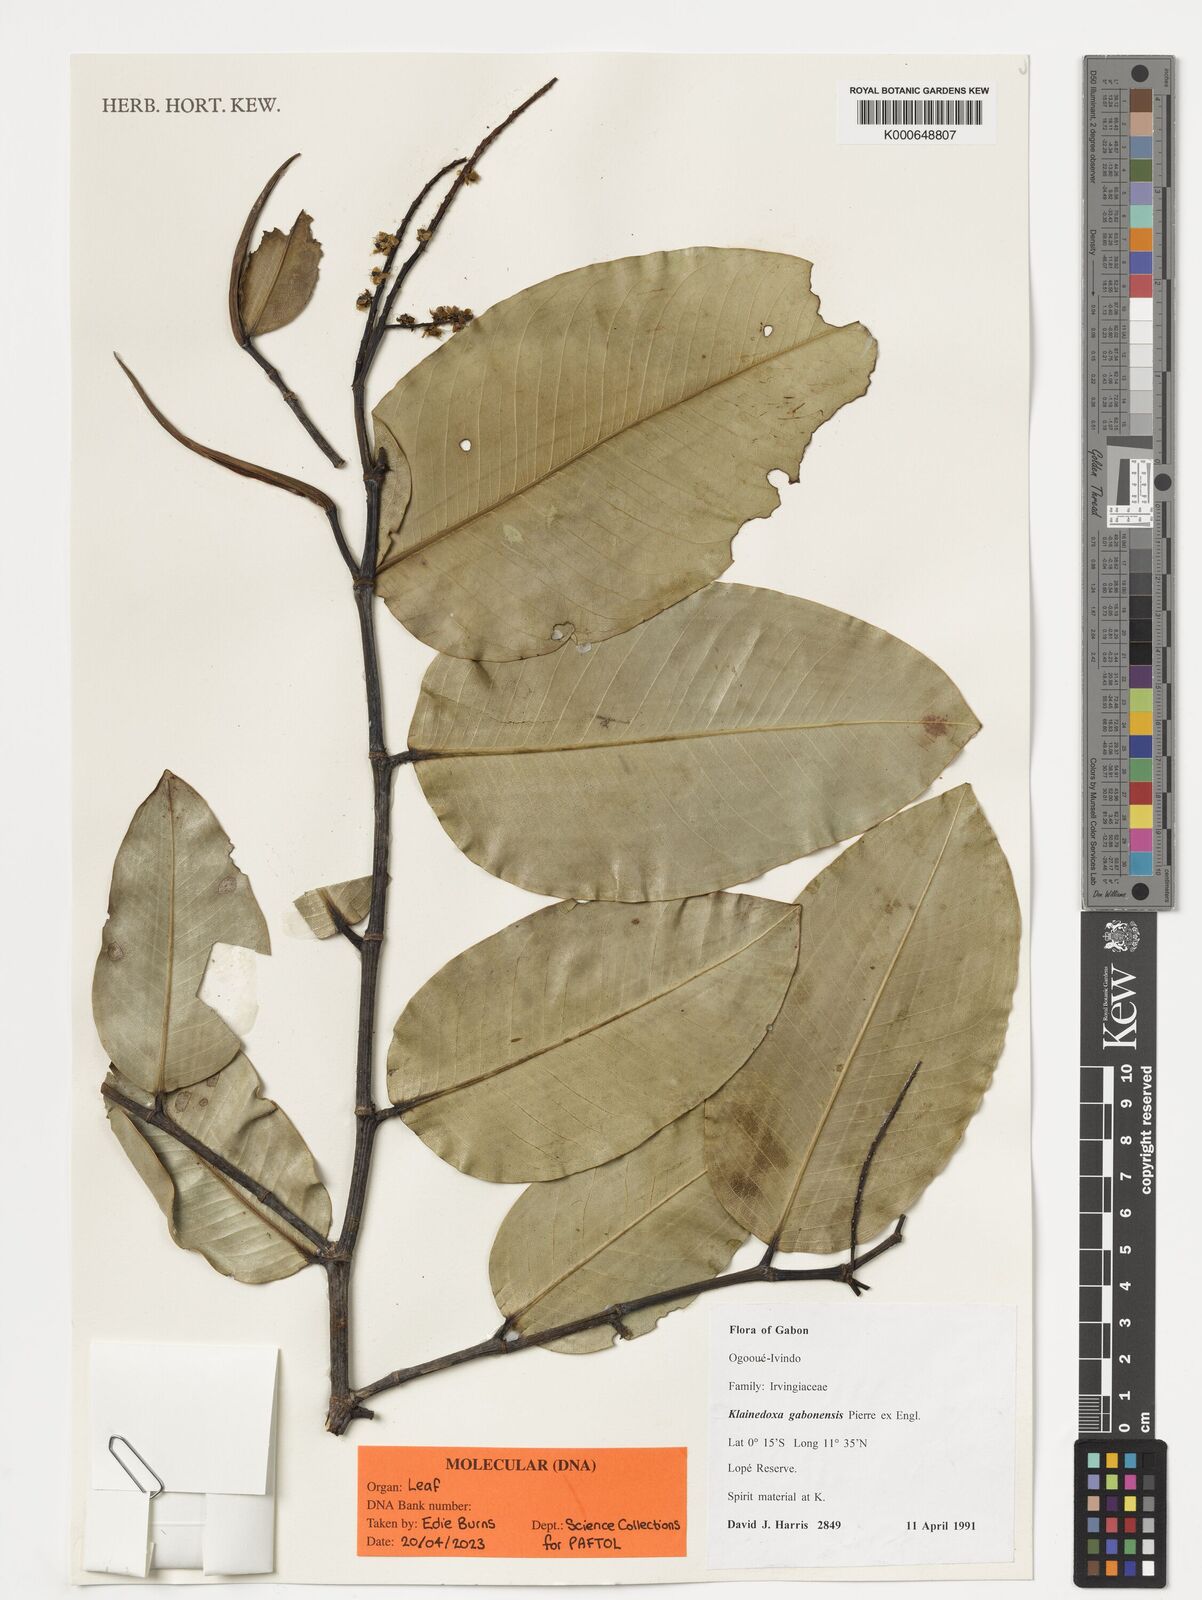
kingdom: Plantae
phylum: Tracheophyta
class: Magnoliopsida
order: Malpighiales
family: Irvingiaceae
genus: Klainedoxa
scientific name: Klainedoxa gabonensis
